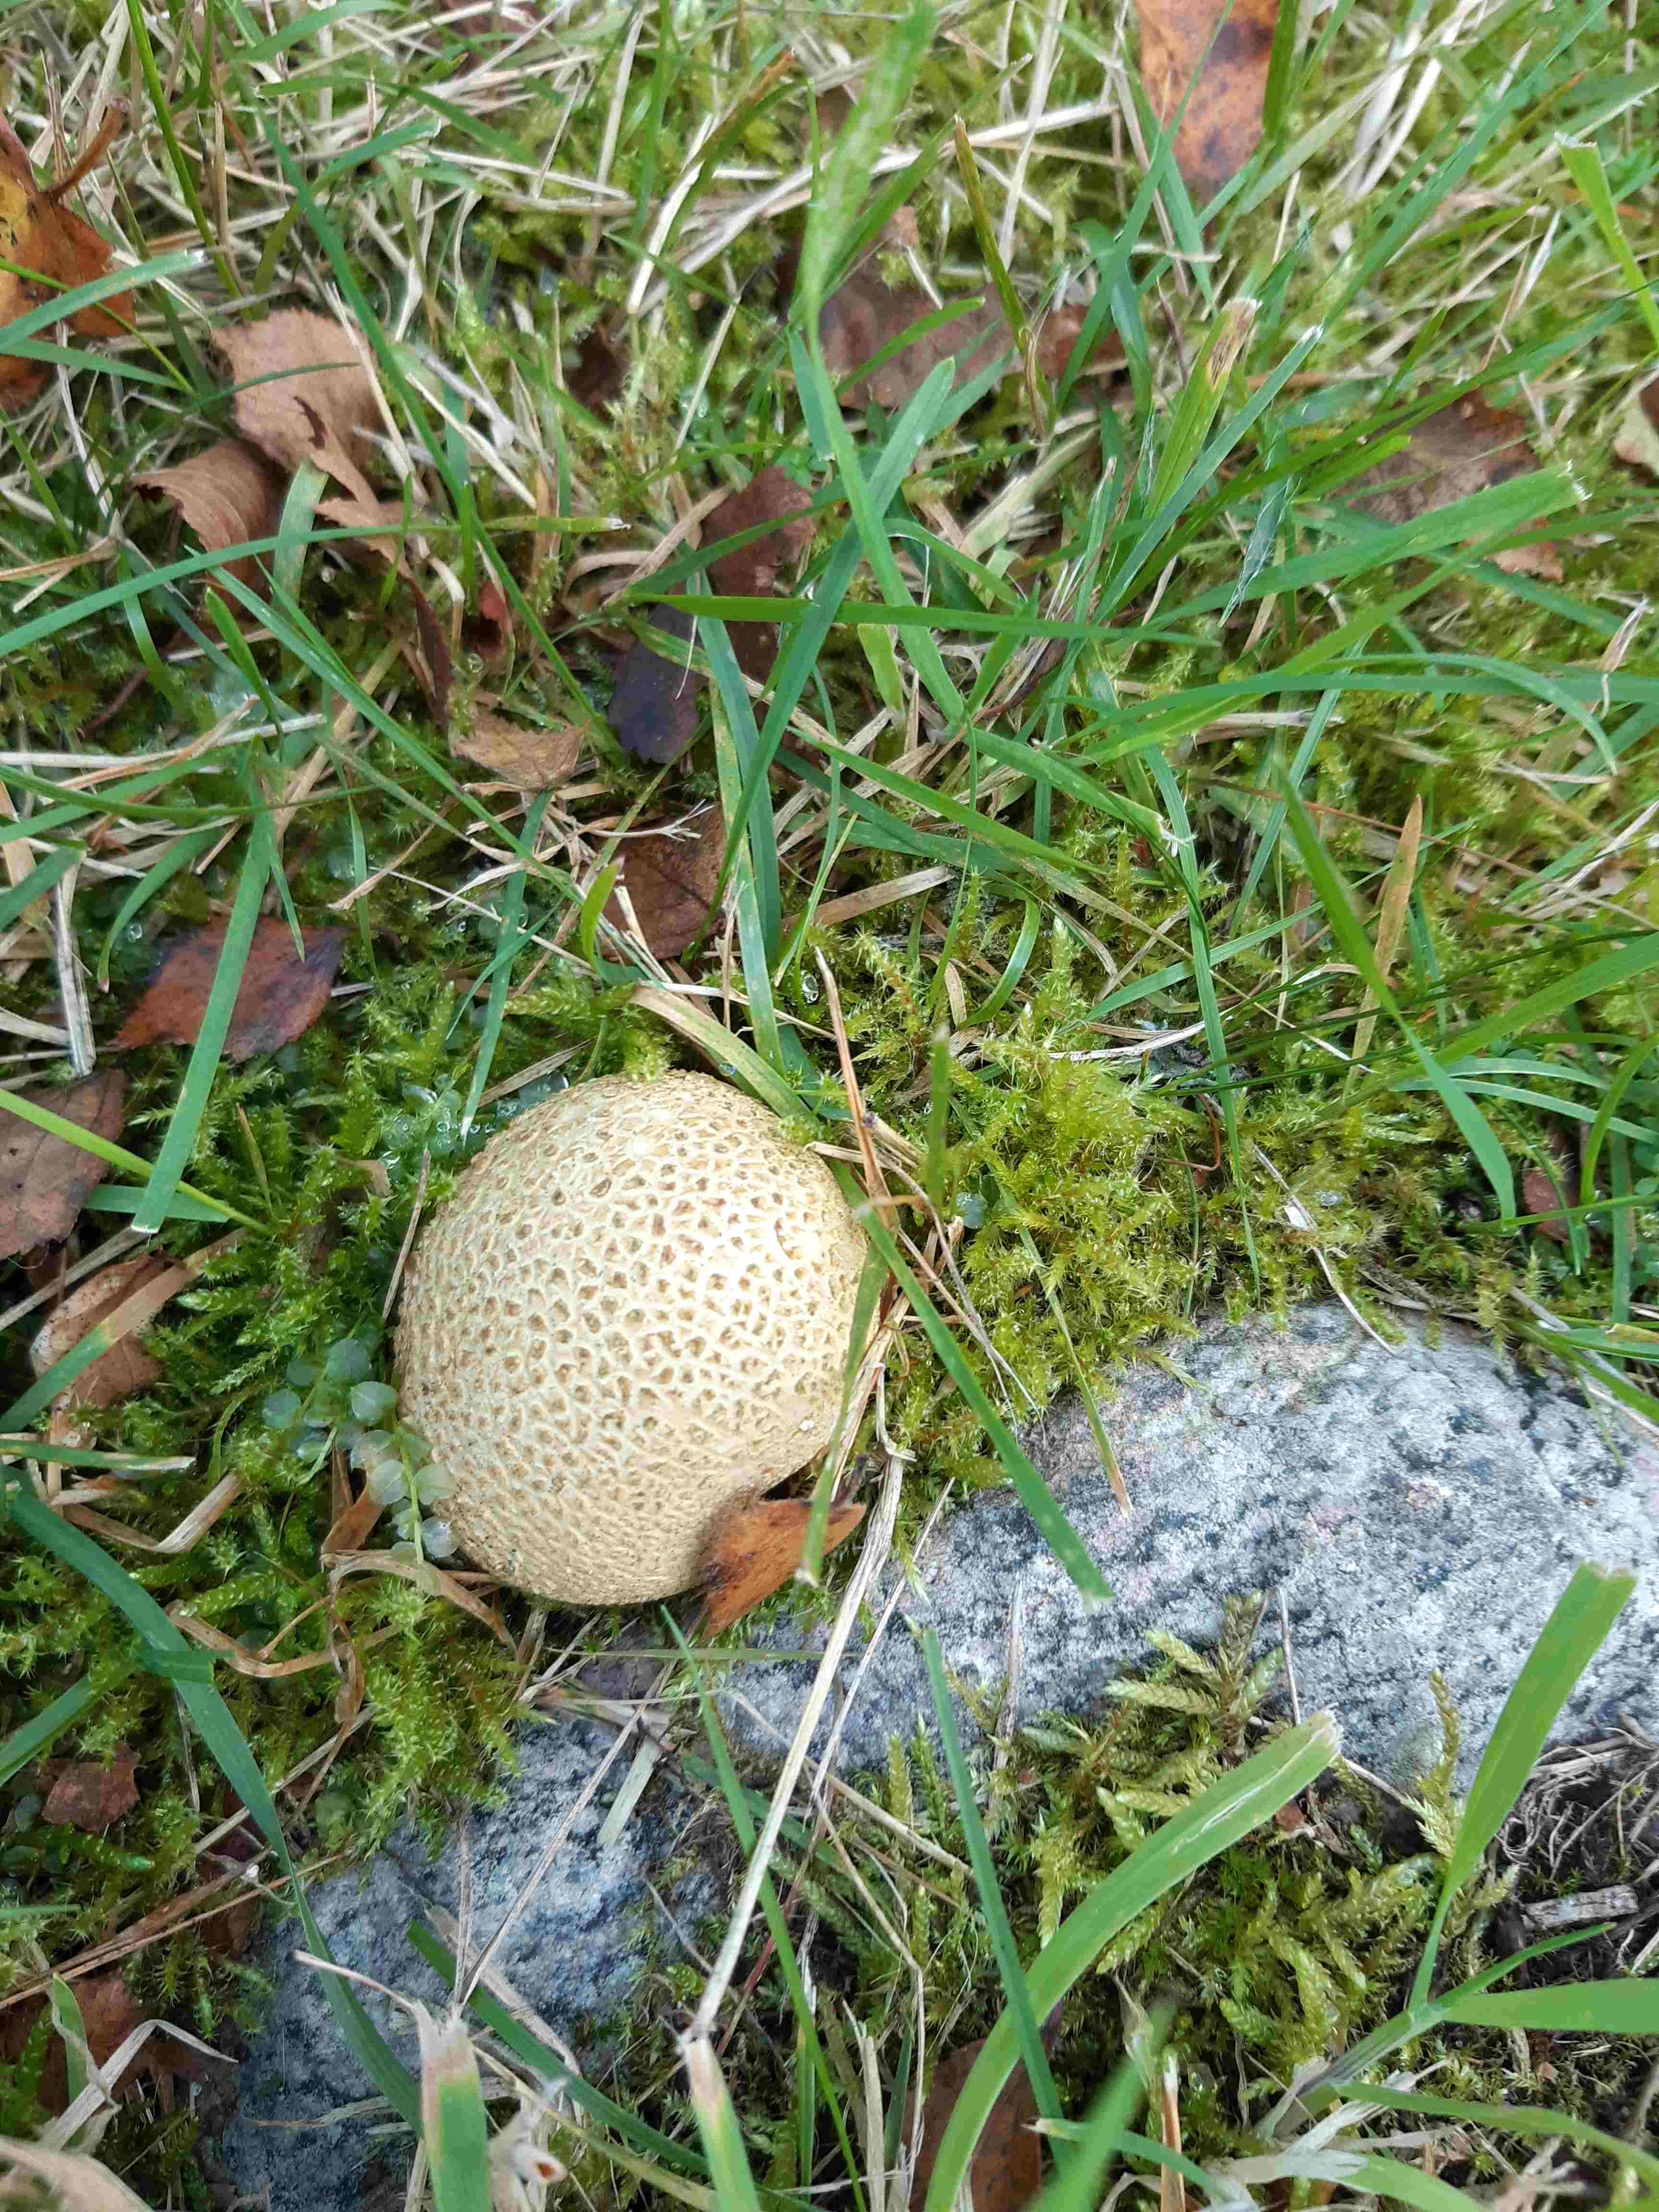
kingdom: Fungi
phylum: Basidiomycota
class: Agaricomycetes
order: Boletales
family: Sclerodermataceae
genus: Scleroderma
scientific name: Scleroderma citrinum
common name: almindelig bruskbold
